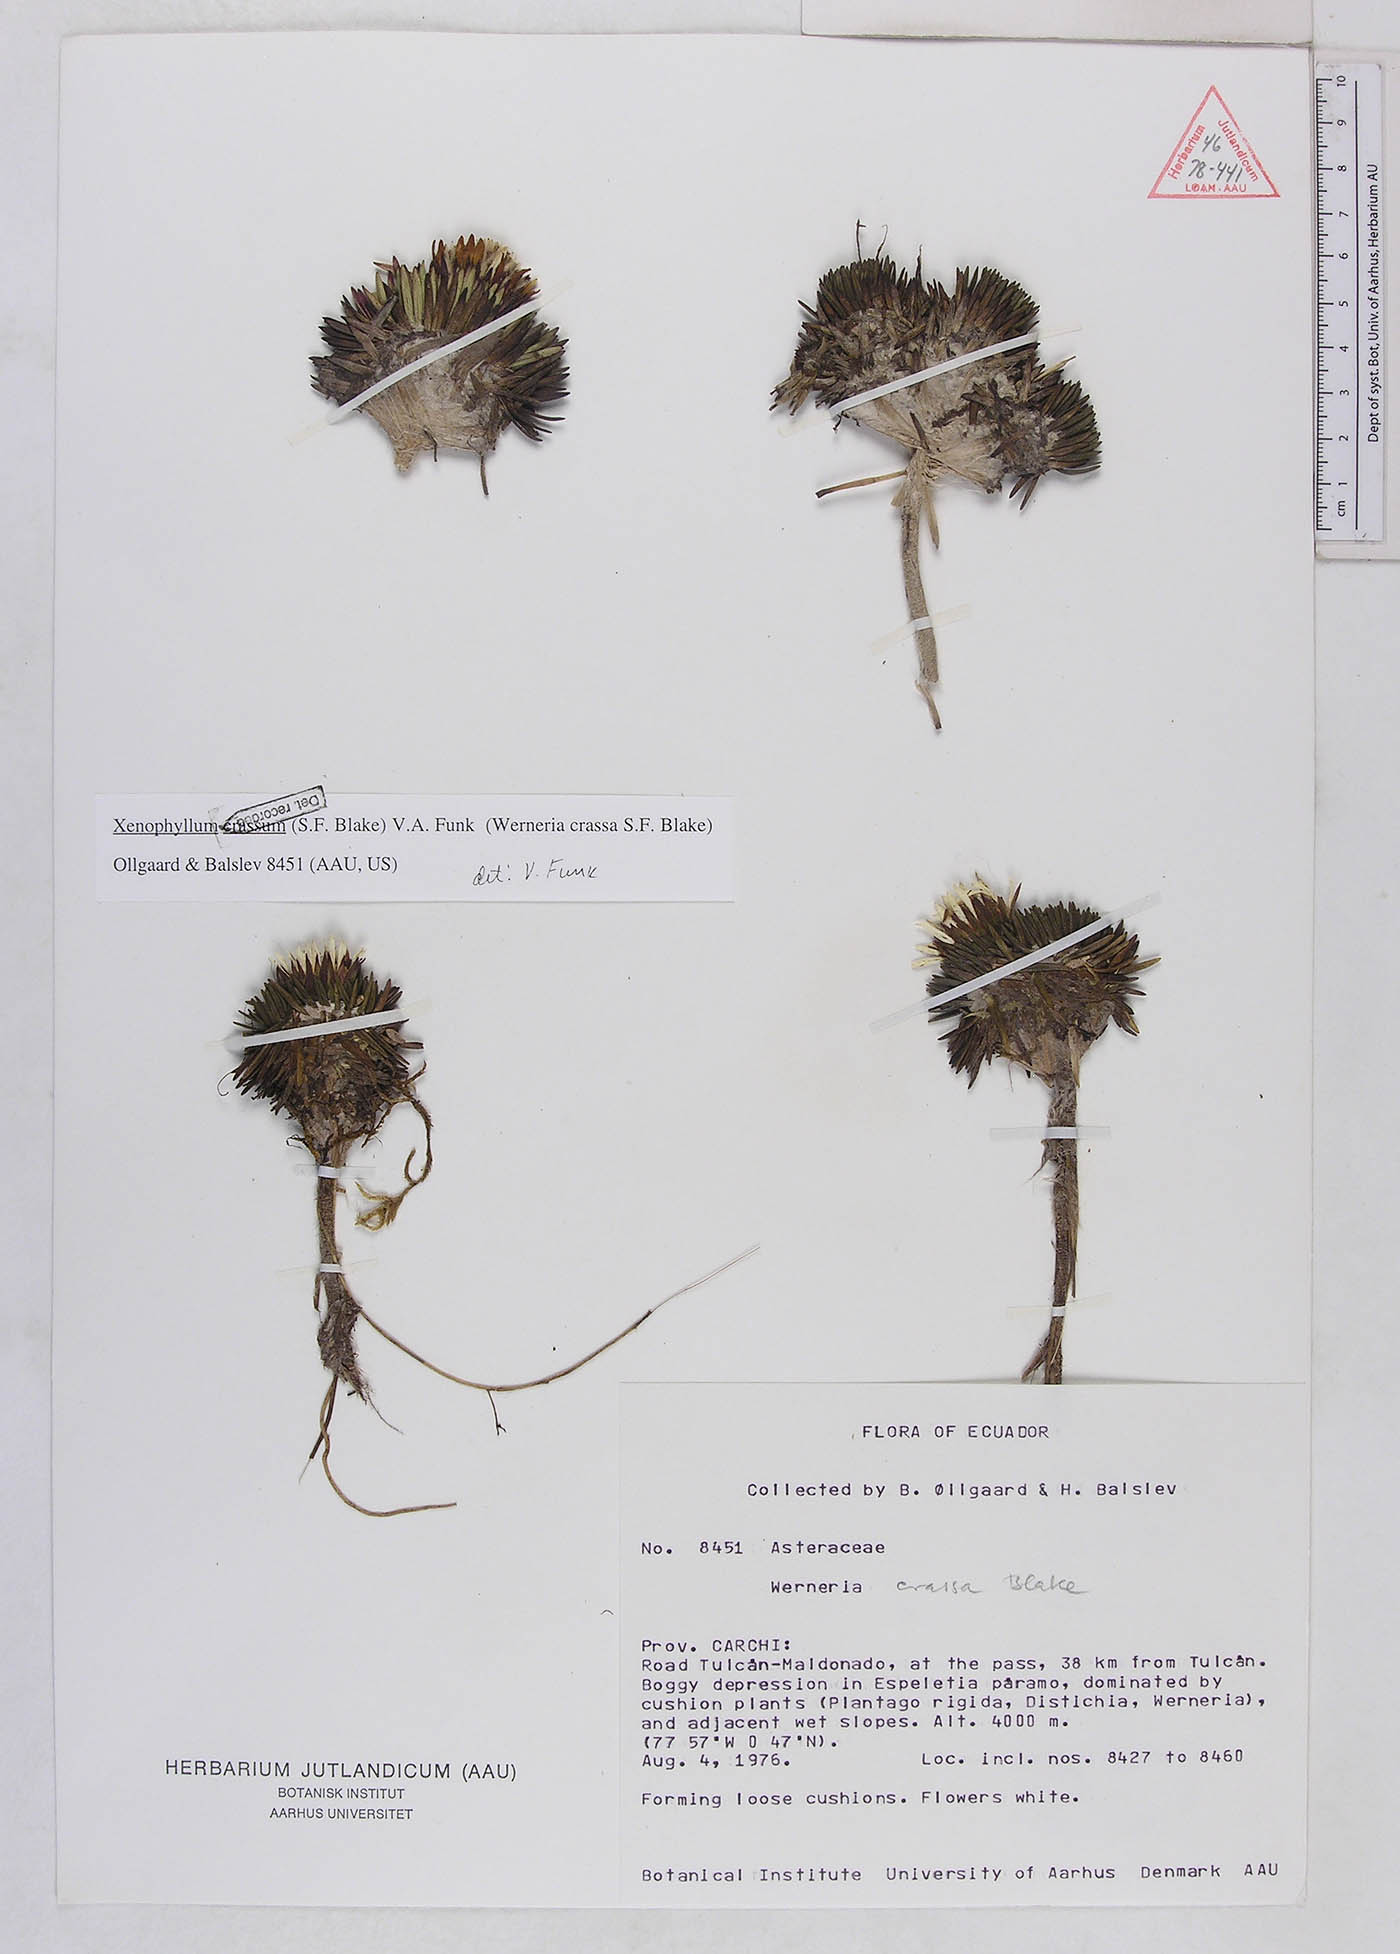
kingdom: Plantae
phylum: Tracheophyta
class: Magnoliopsida
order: Asterales
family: Asteraceae
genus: Werneria
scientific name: Werneria crassa
